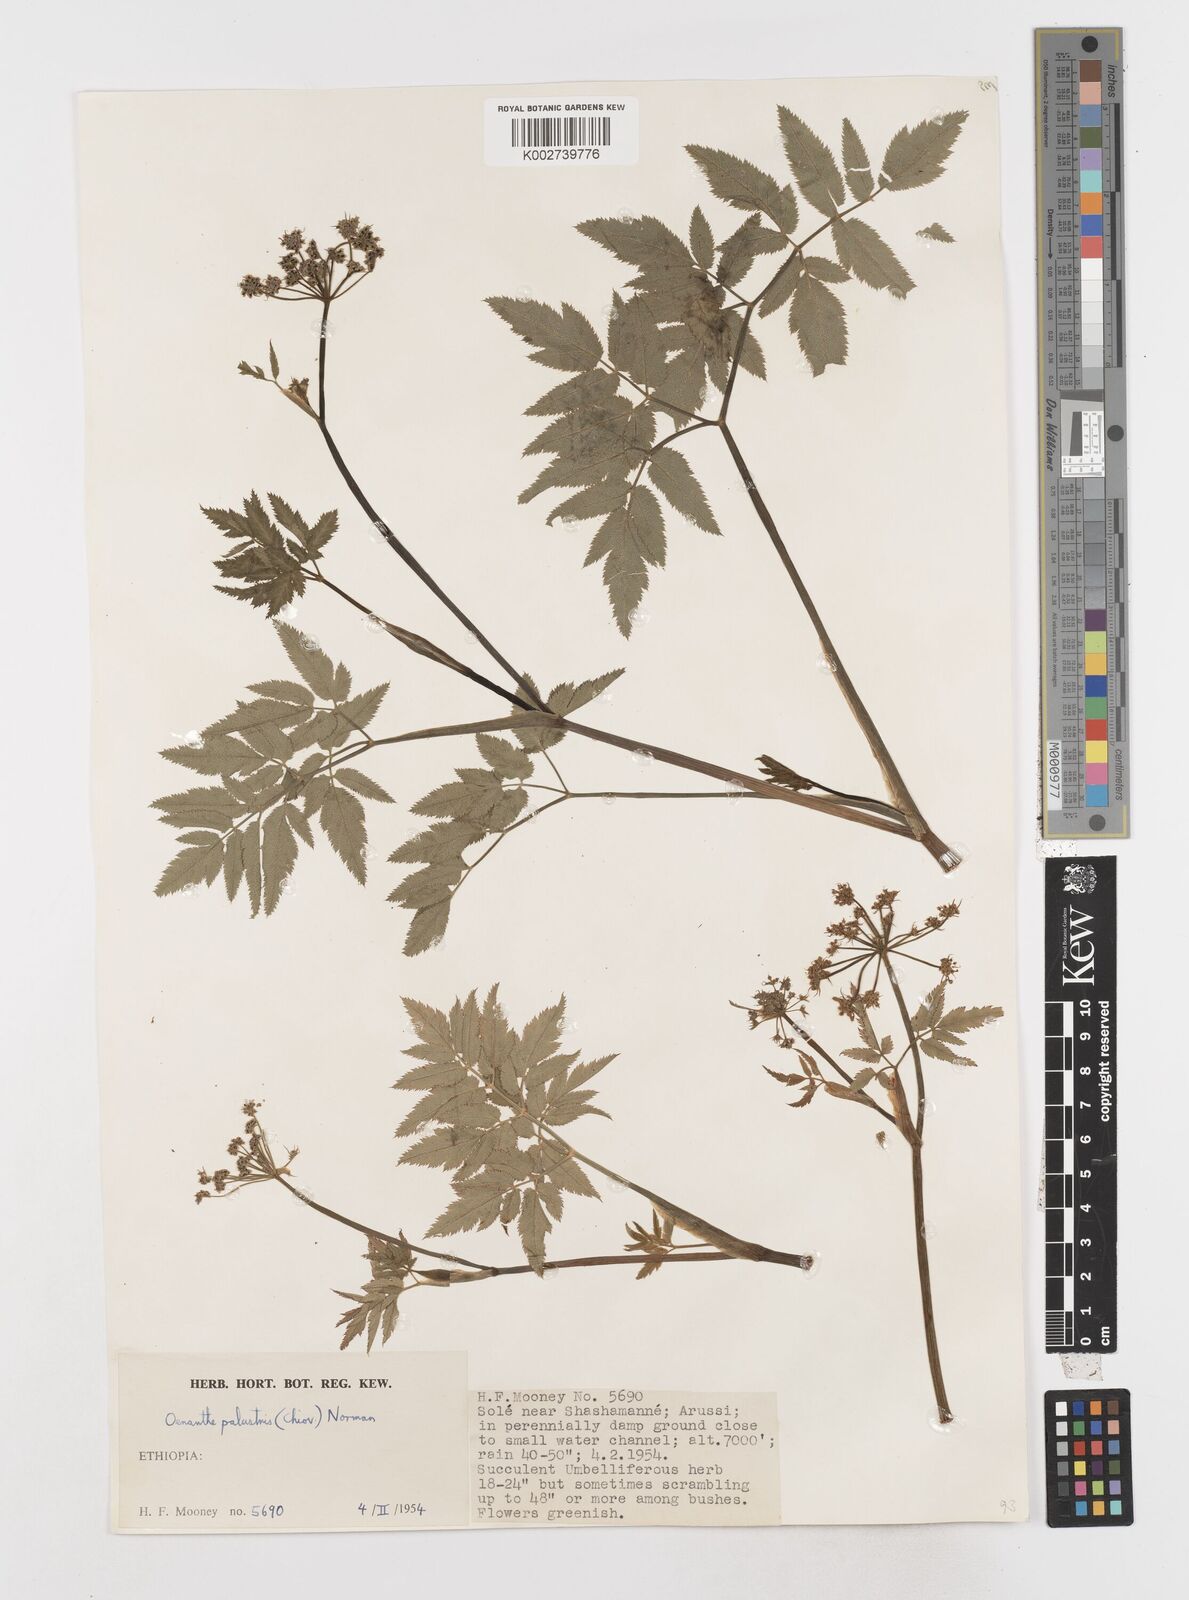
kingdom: Plantae
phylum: Tracheophyta
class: Magnoliopsida
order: Apiales
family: Apiaceae
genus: Oenanthe
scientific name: Oenanthe palustris
